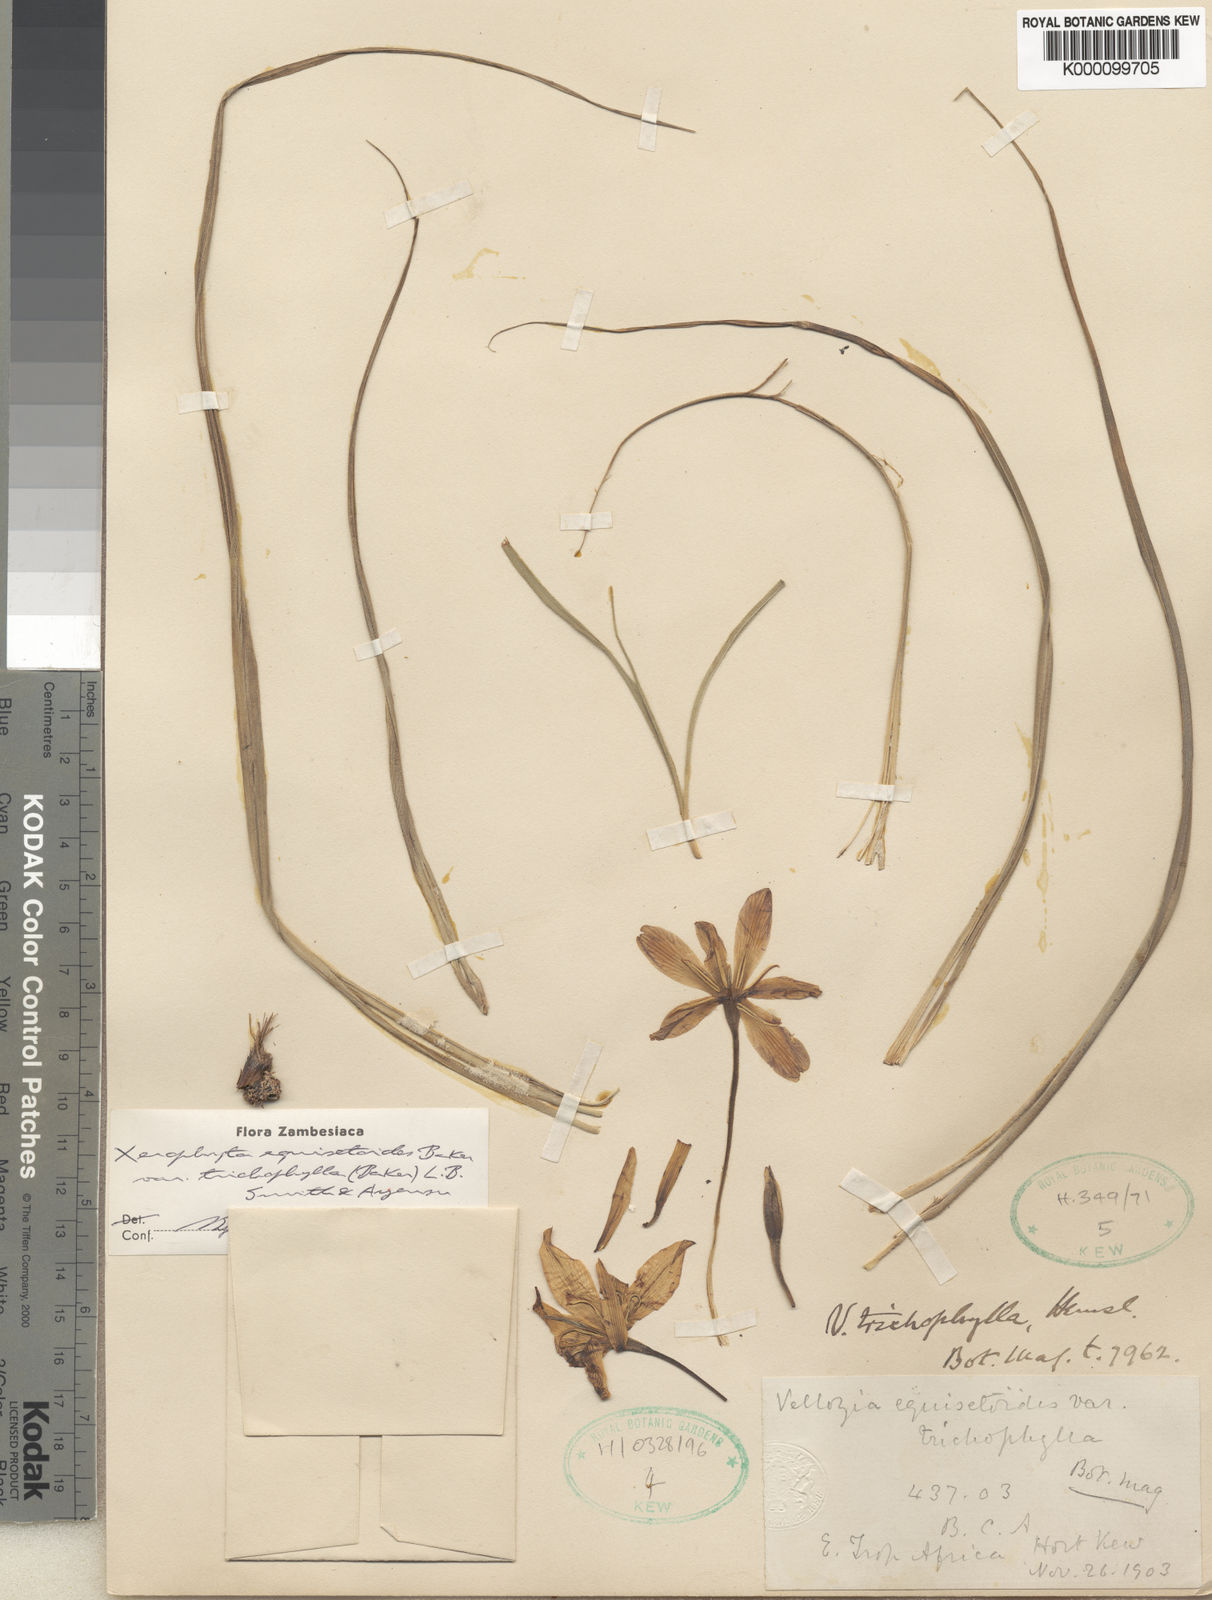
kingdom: Plantae
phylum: Tracheophyta
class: Liliopsida
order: Pandanales
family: Velloziaceae
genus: Xerophyta
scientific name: Xerophyta trichophylla
